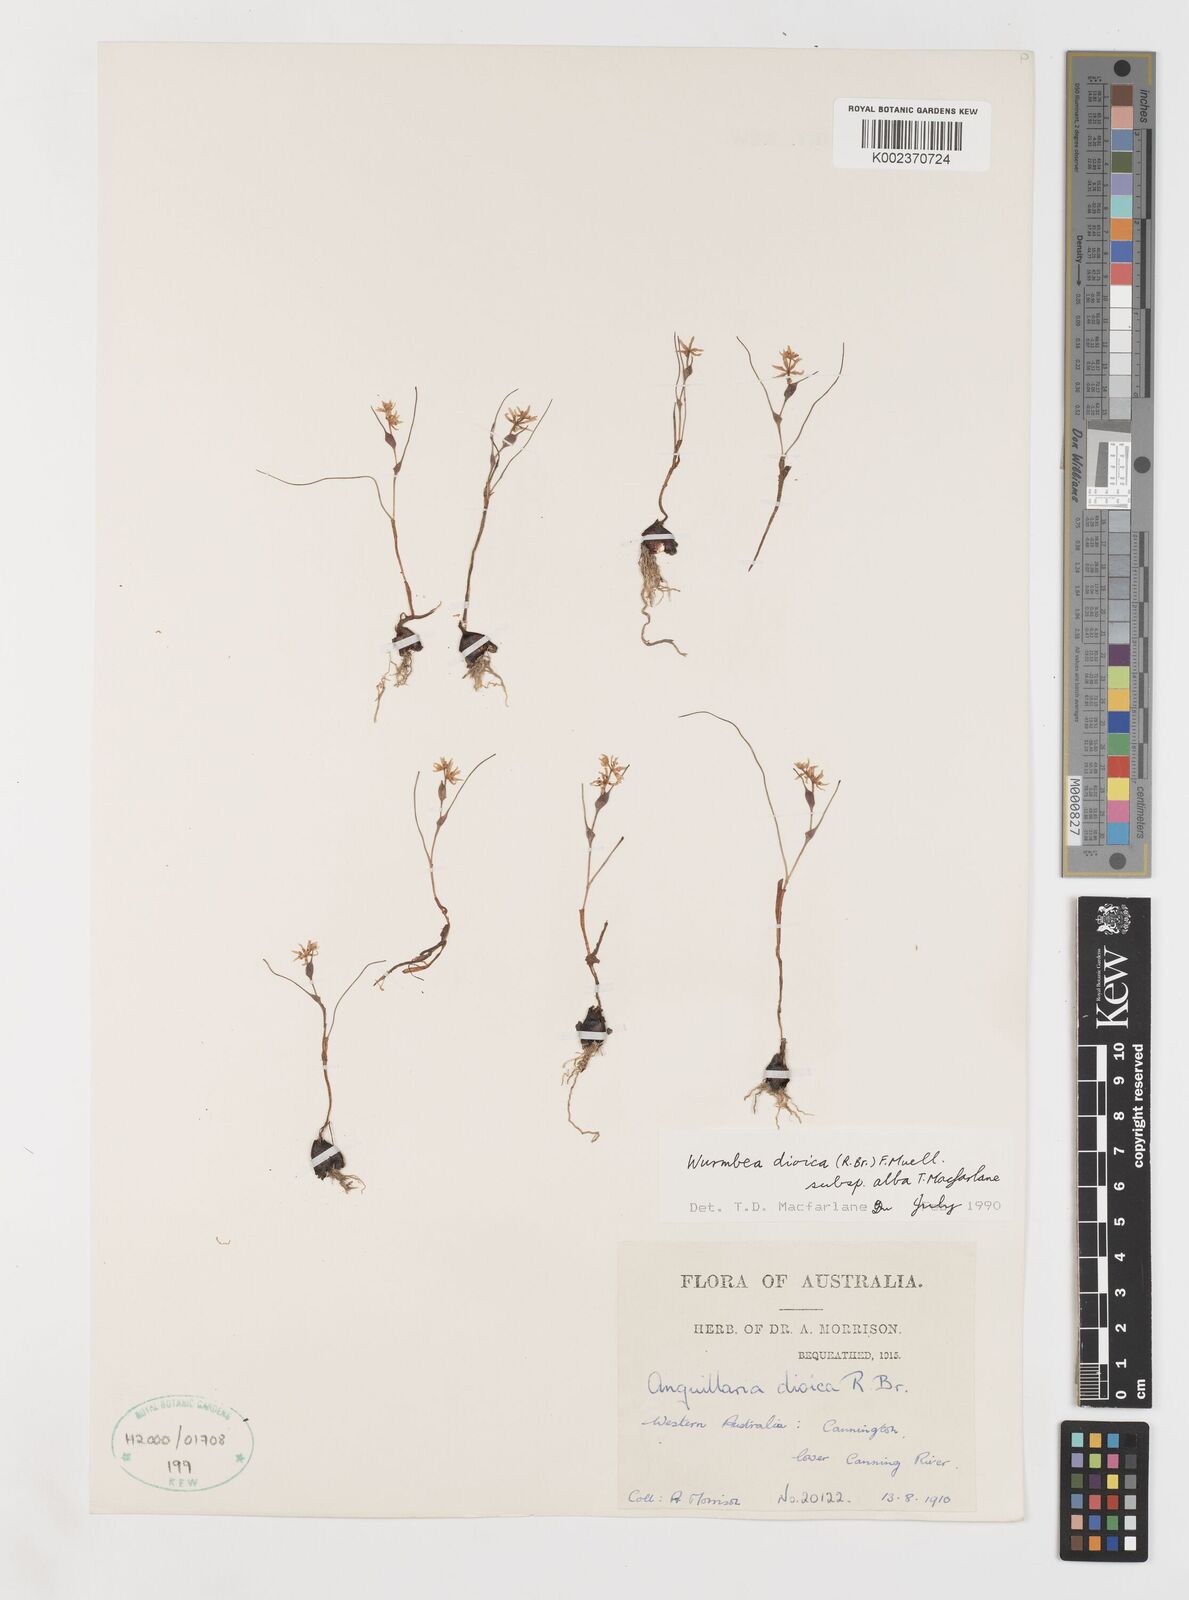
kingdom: Plantae
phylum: Tracheophyta
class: Liliopsida
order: Liliales
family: Colchicaceae
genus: Wurmbea
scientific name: Wurmbea dioica
